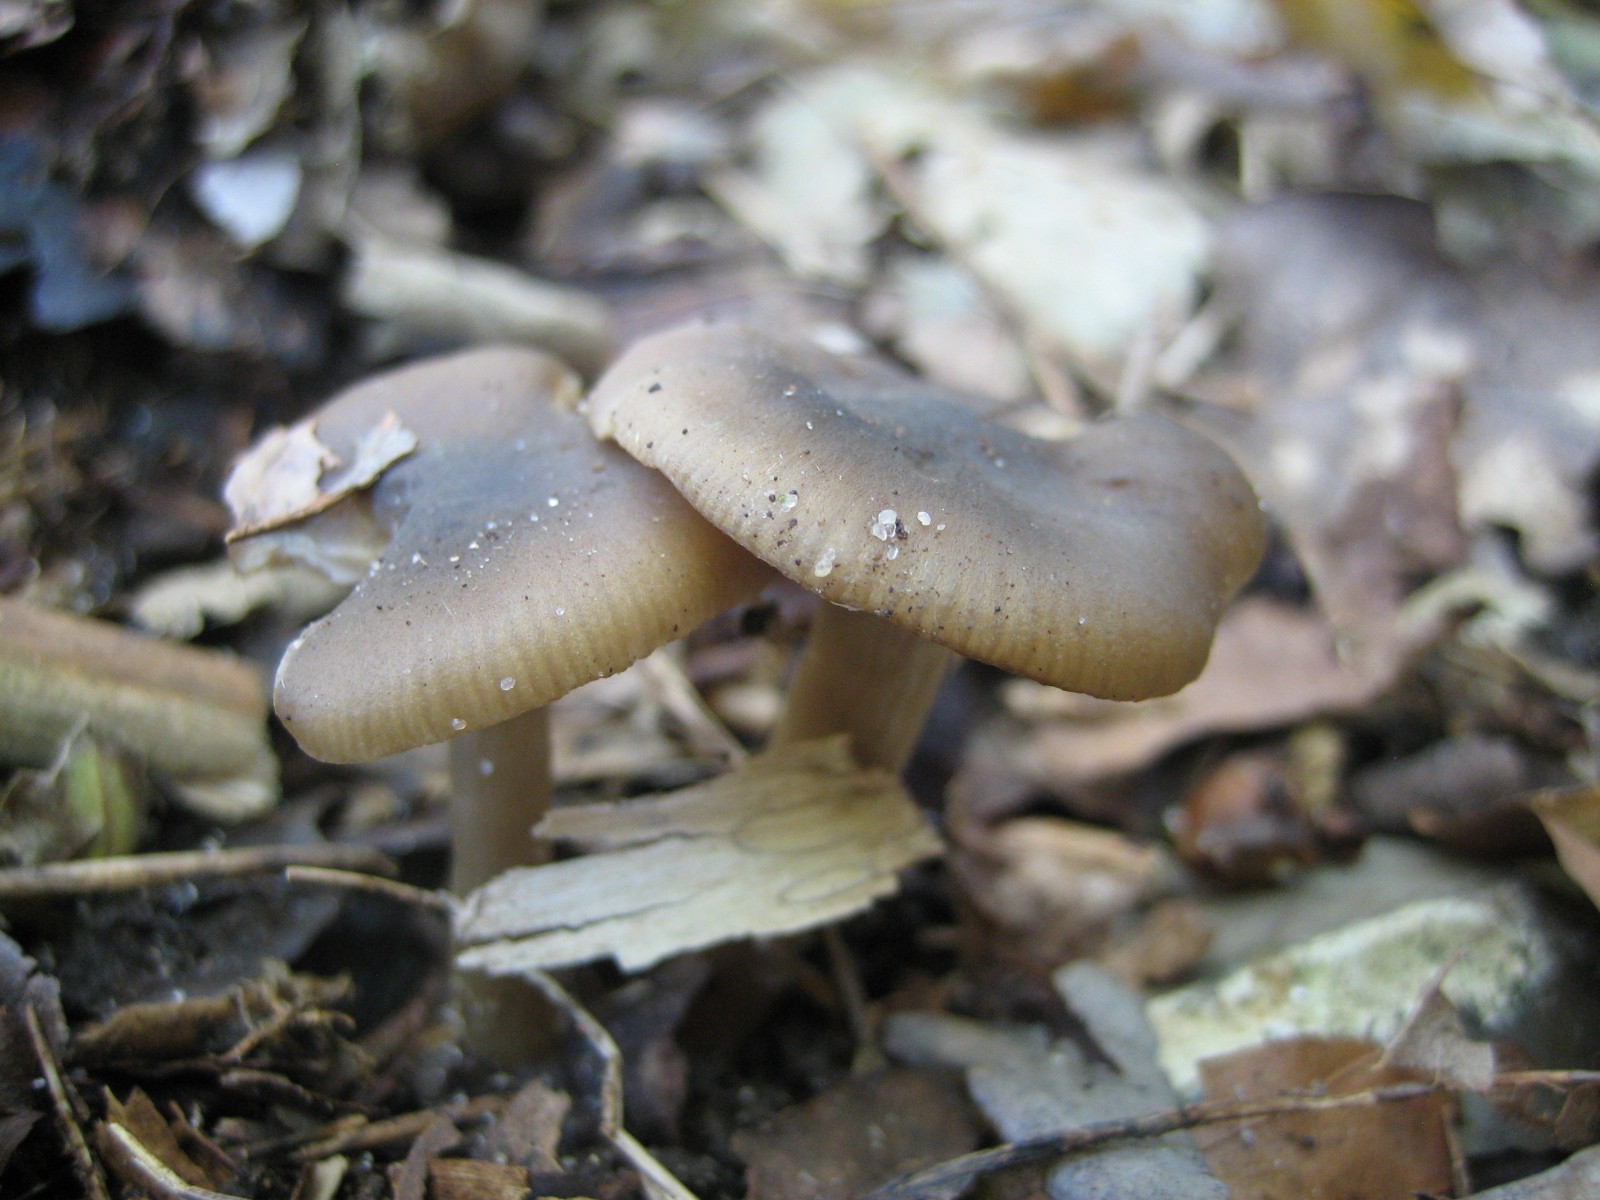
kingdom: Fungi
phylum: Basidiomycota
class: Agaricomycetes
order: Agaricales
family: Entolomataceae
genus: Entoloma
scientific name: Entoloma
